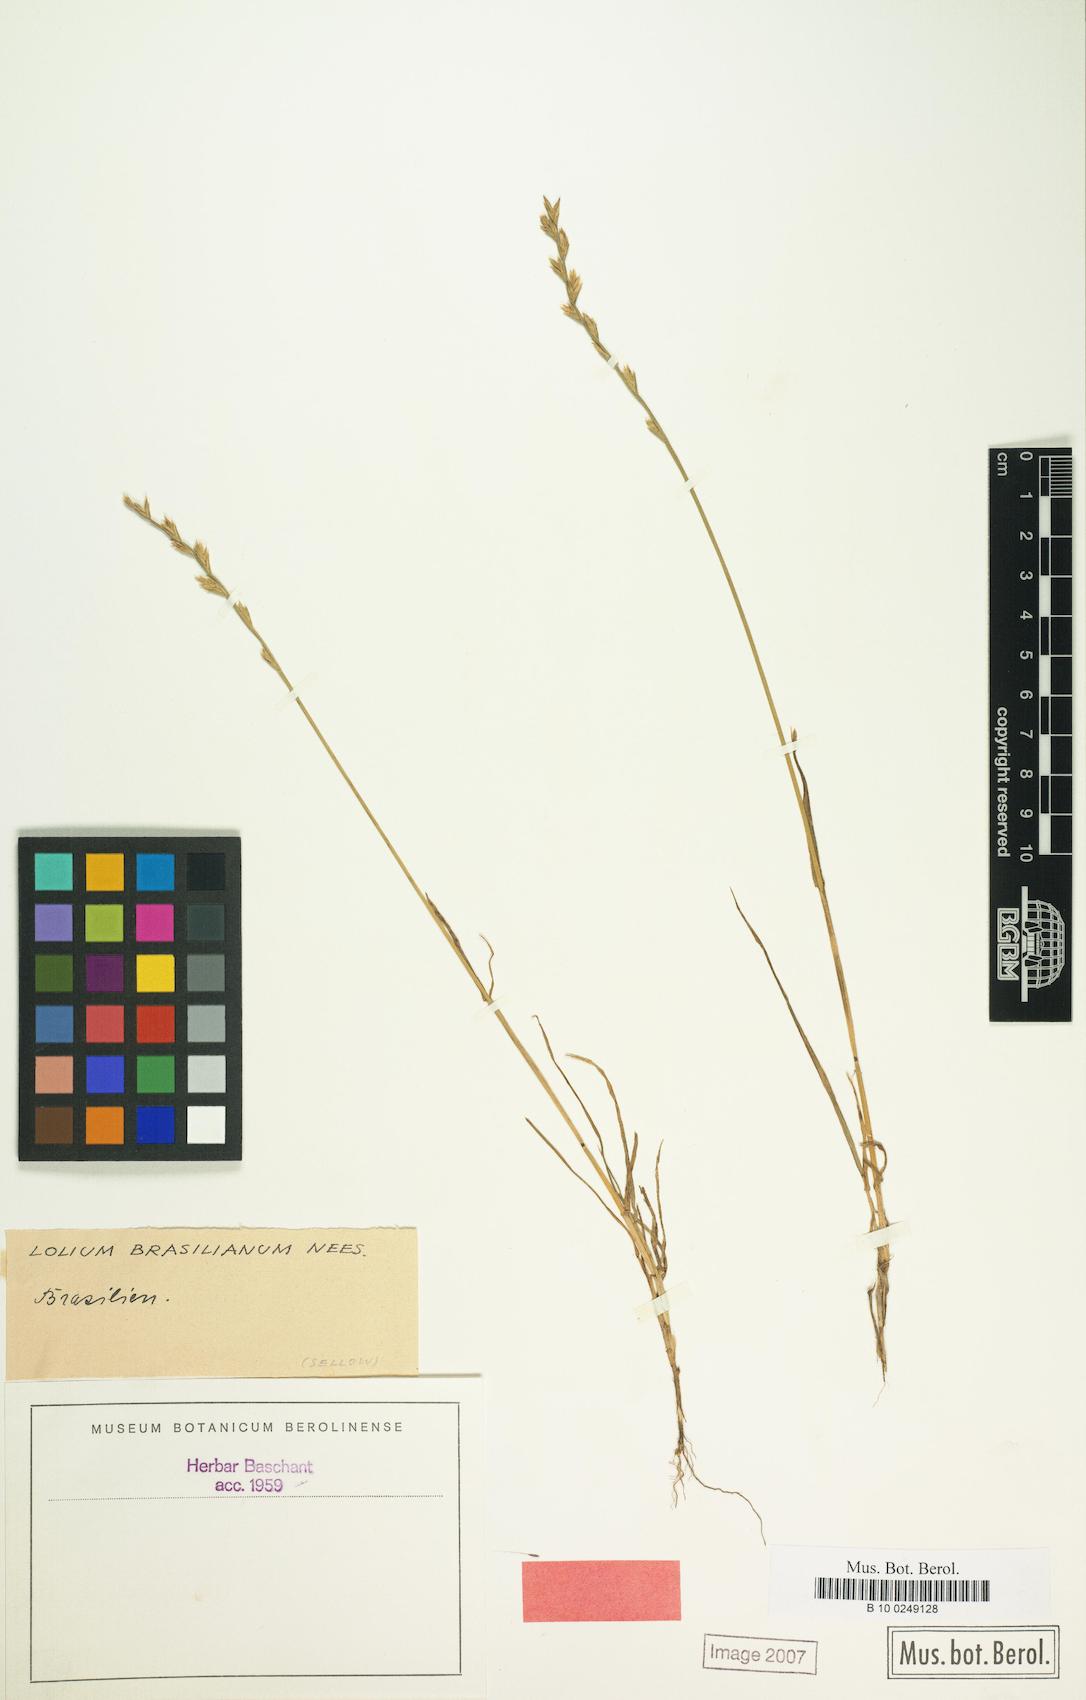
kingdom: Plantae
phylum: Tracheophyta
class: Liliopsida
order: Poales
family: Poaceae
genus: Lolium
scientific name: Lolium perenne
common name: Perennial ryegrass
